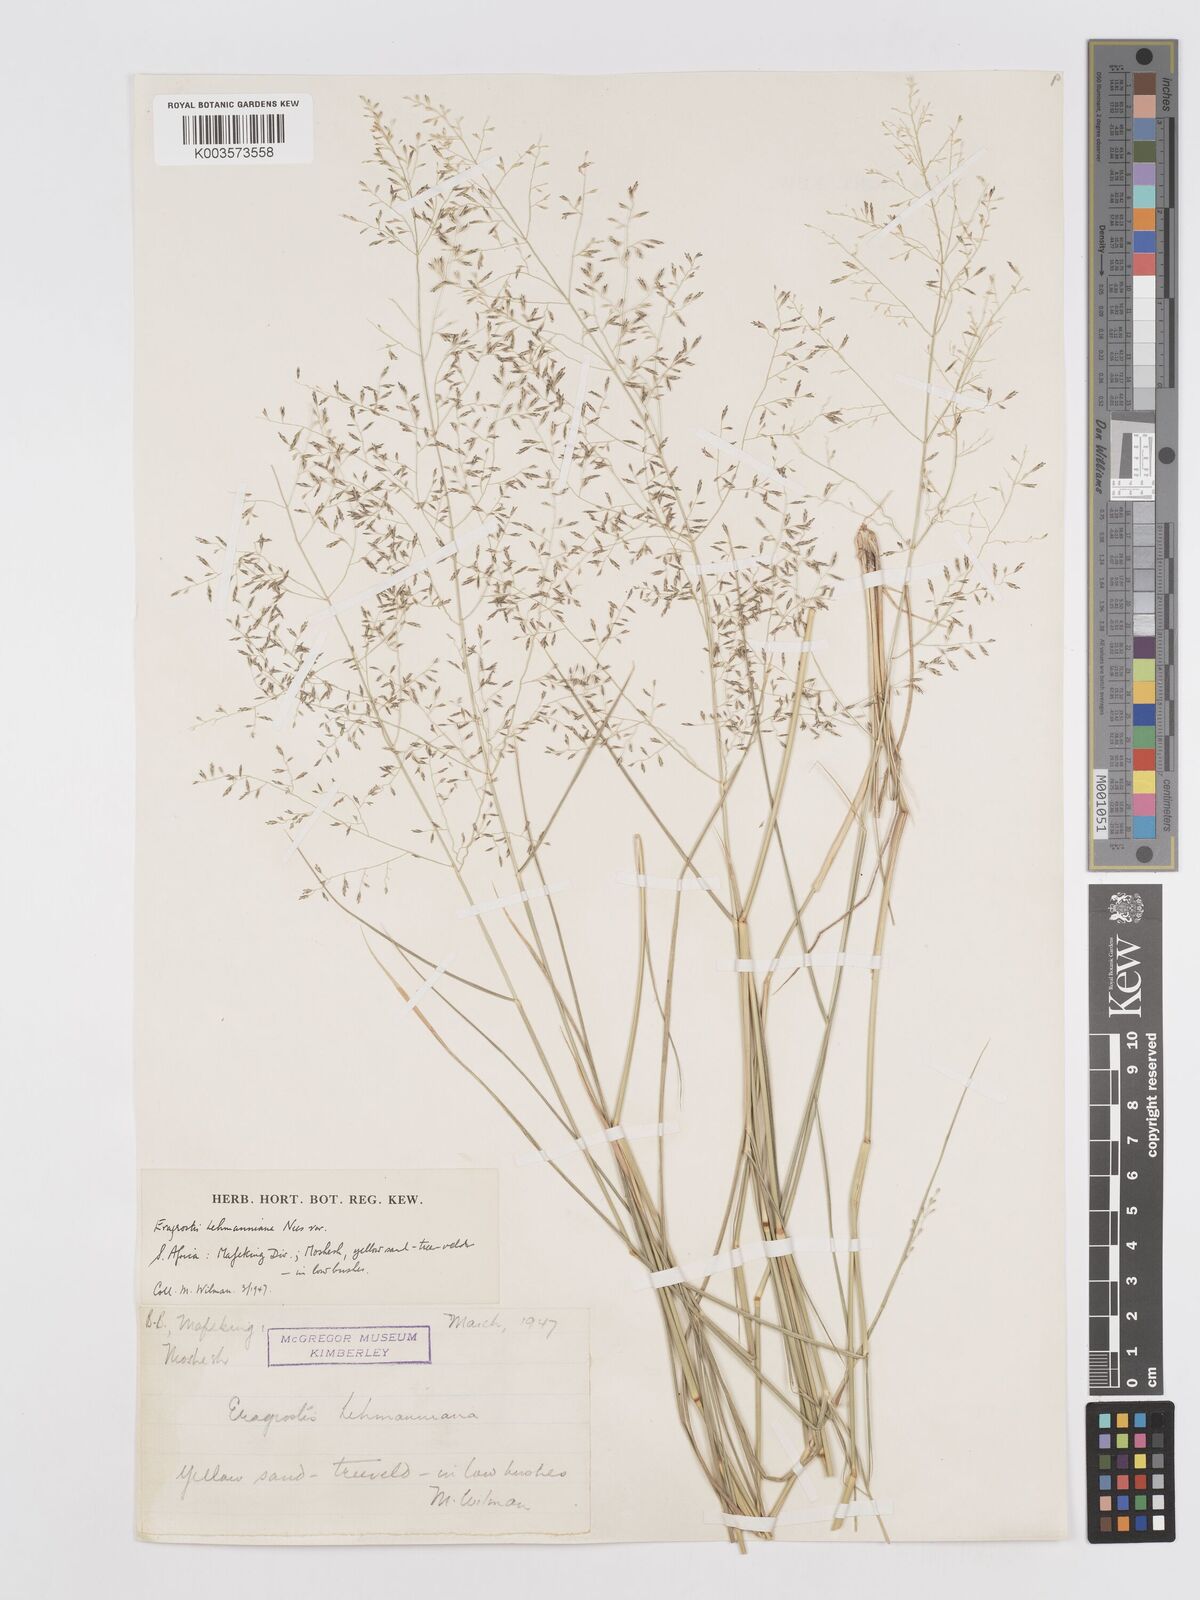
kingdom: Plantae
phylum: Tracheophyta
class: Liliopsida
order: Poales
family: Poaceae
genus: Eragrostis
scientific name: Eragrostis lehmanniana
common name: Lehmann lovegrass
